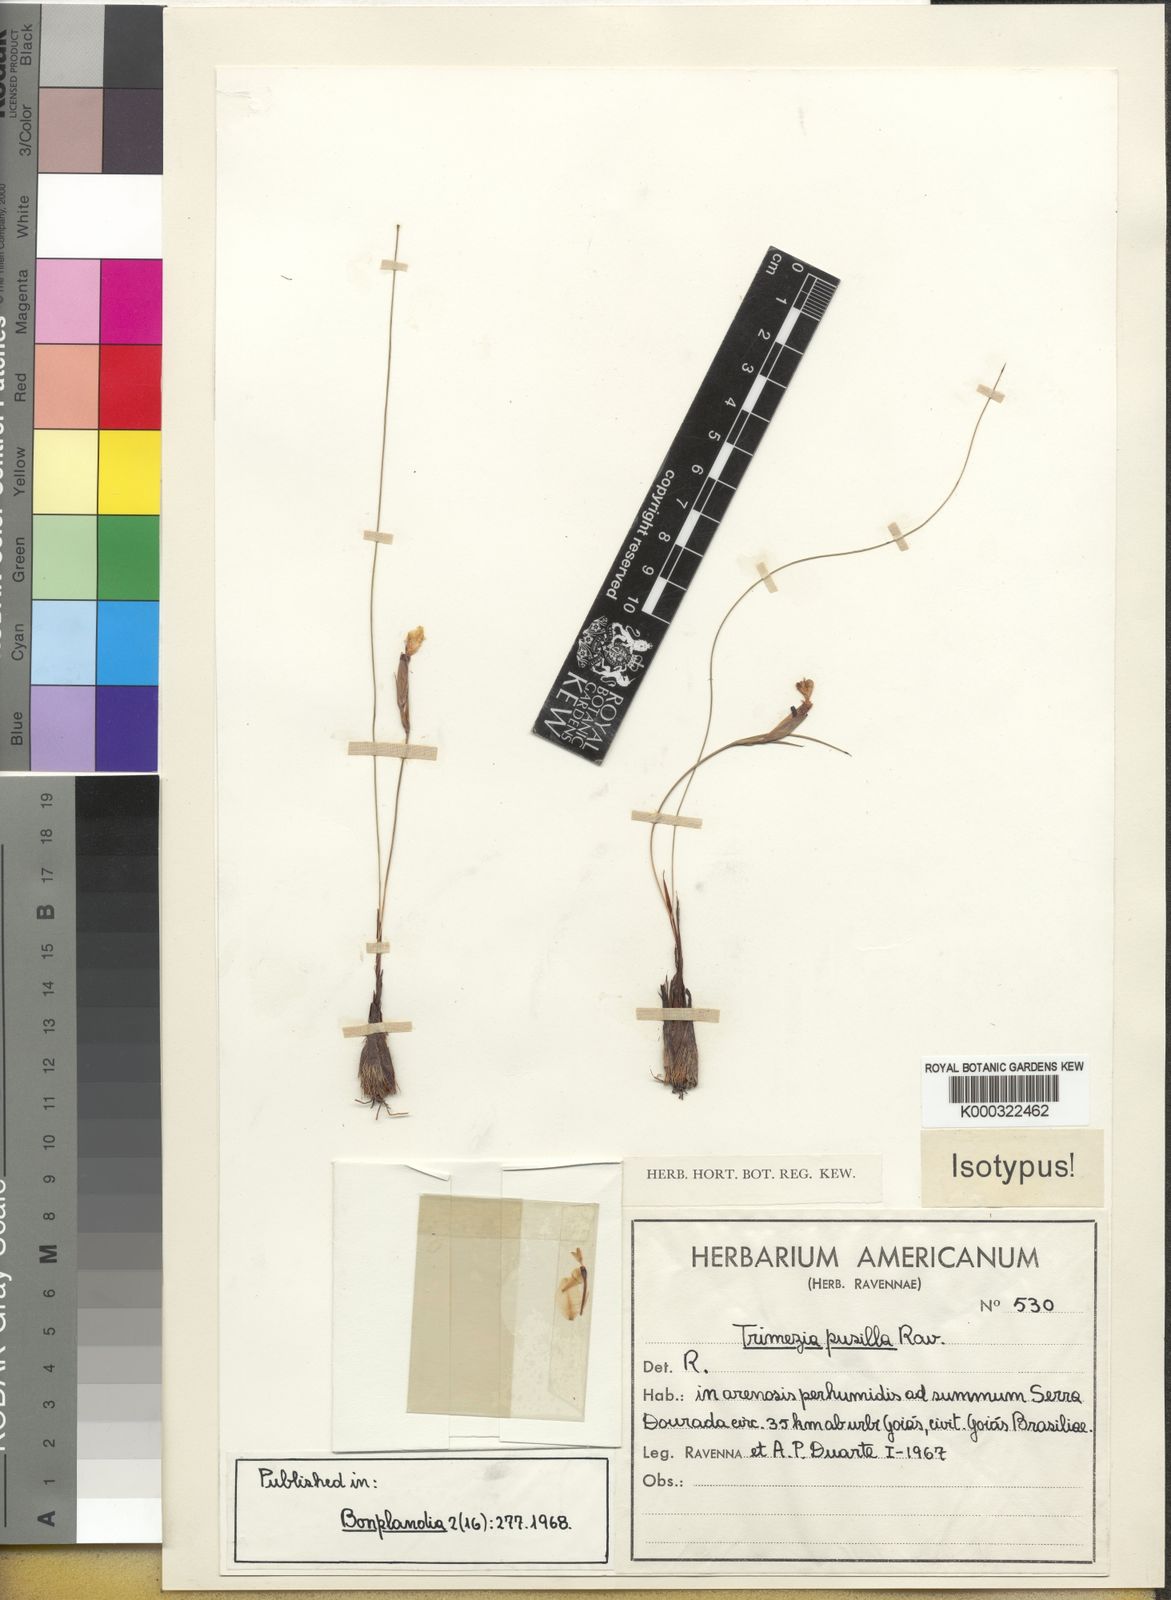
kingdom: Plantae
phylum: Tracheophyta
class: Liliopsida
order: Asparagales
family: Iridaceae
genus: Trimezia
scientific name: Trimezia pusilla
